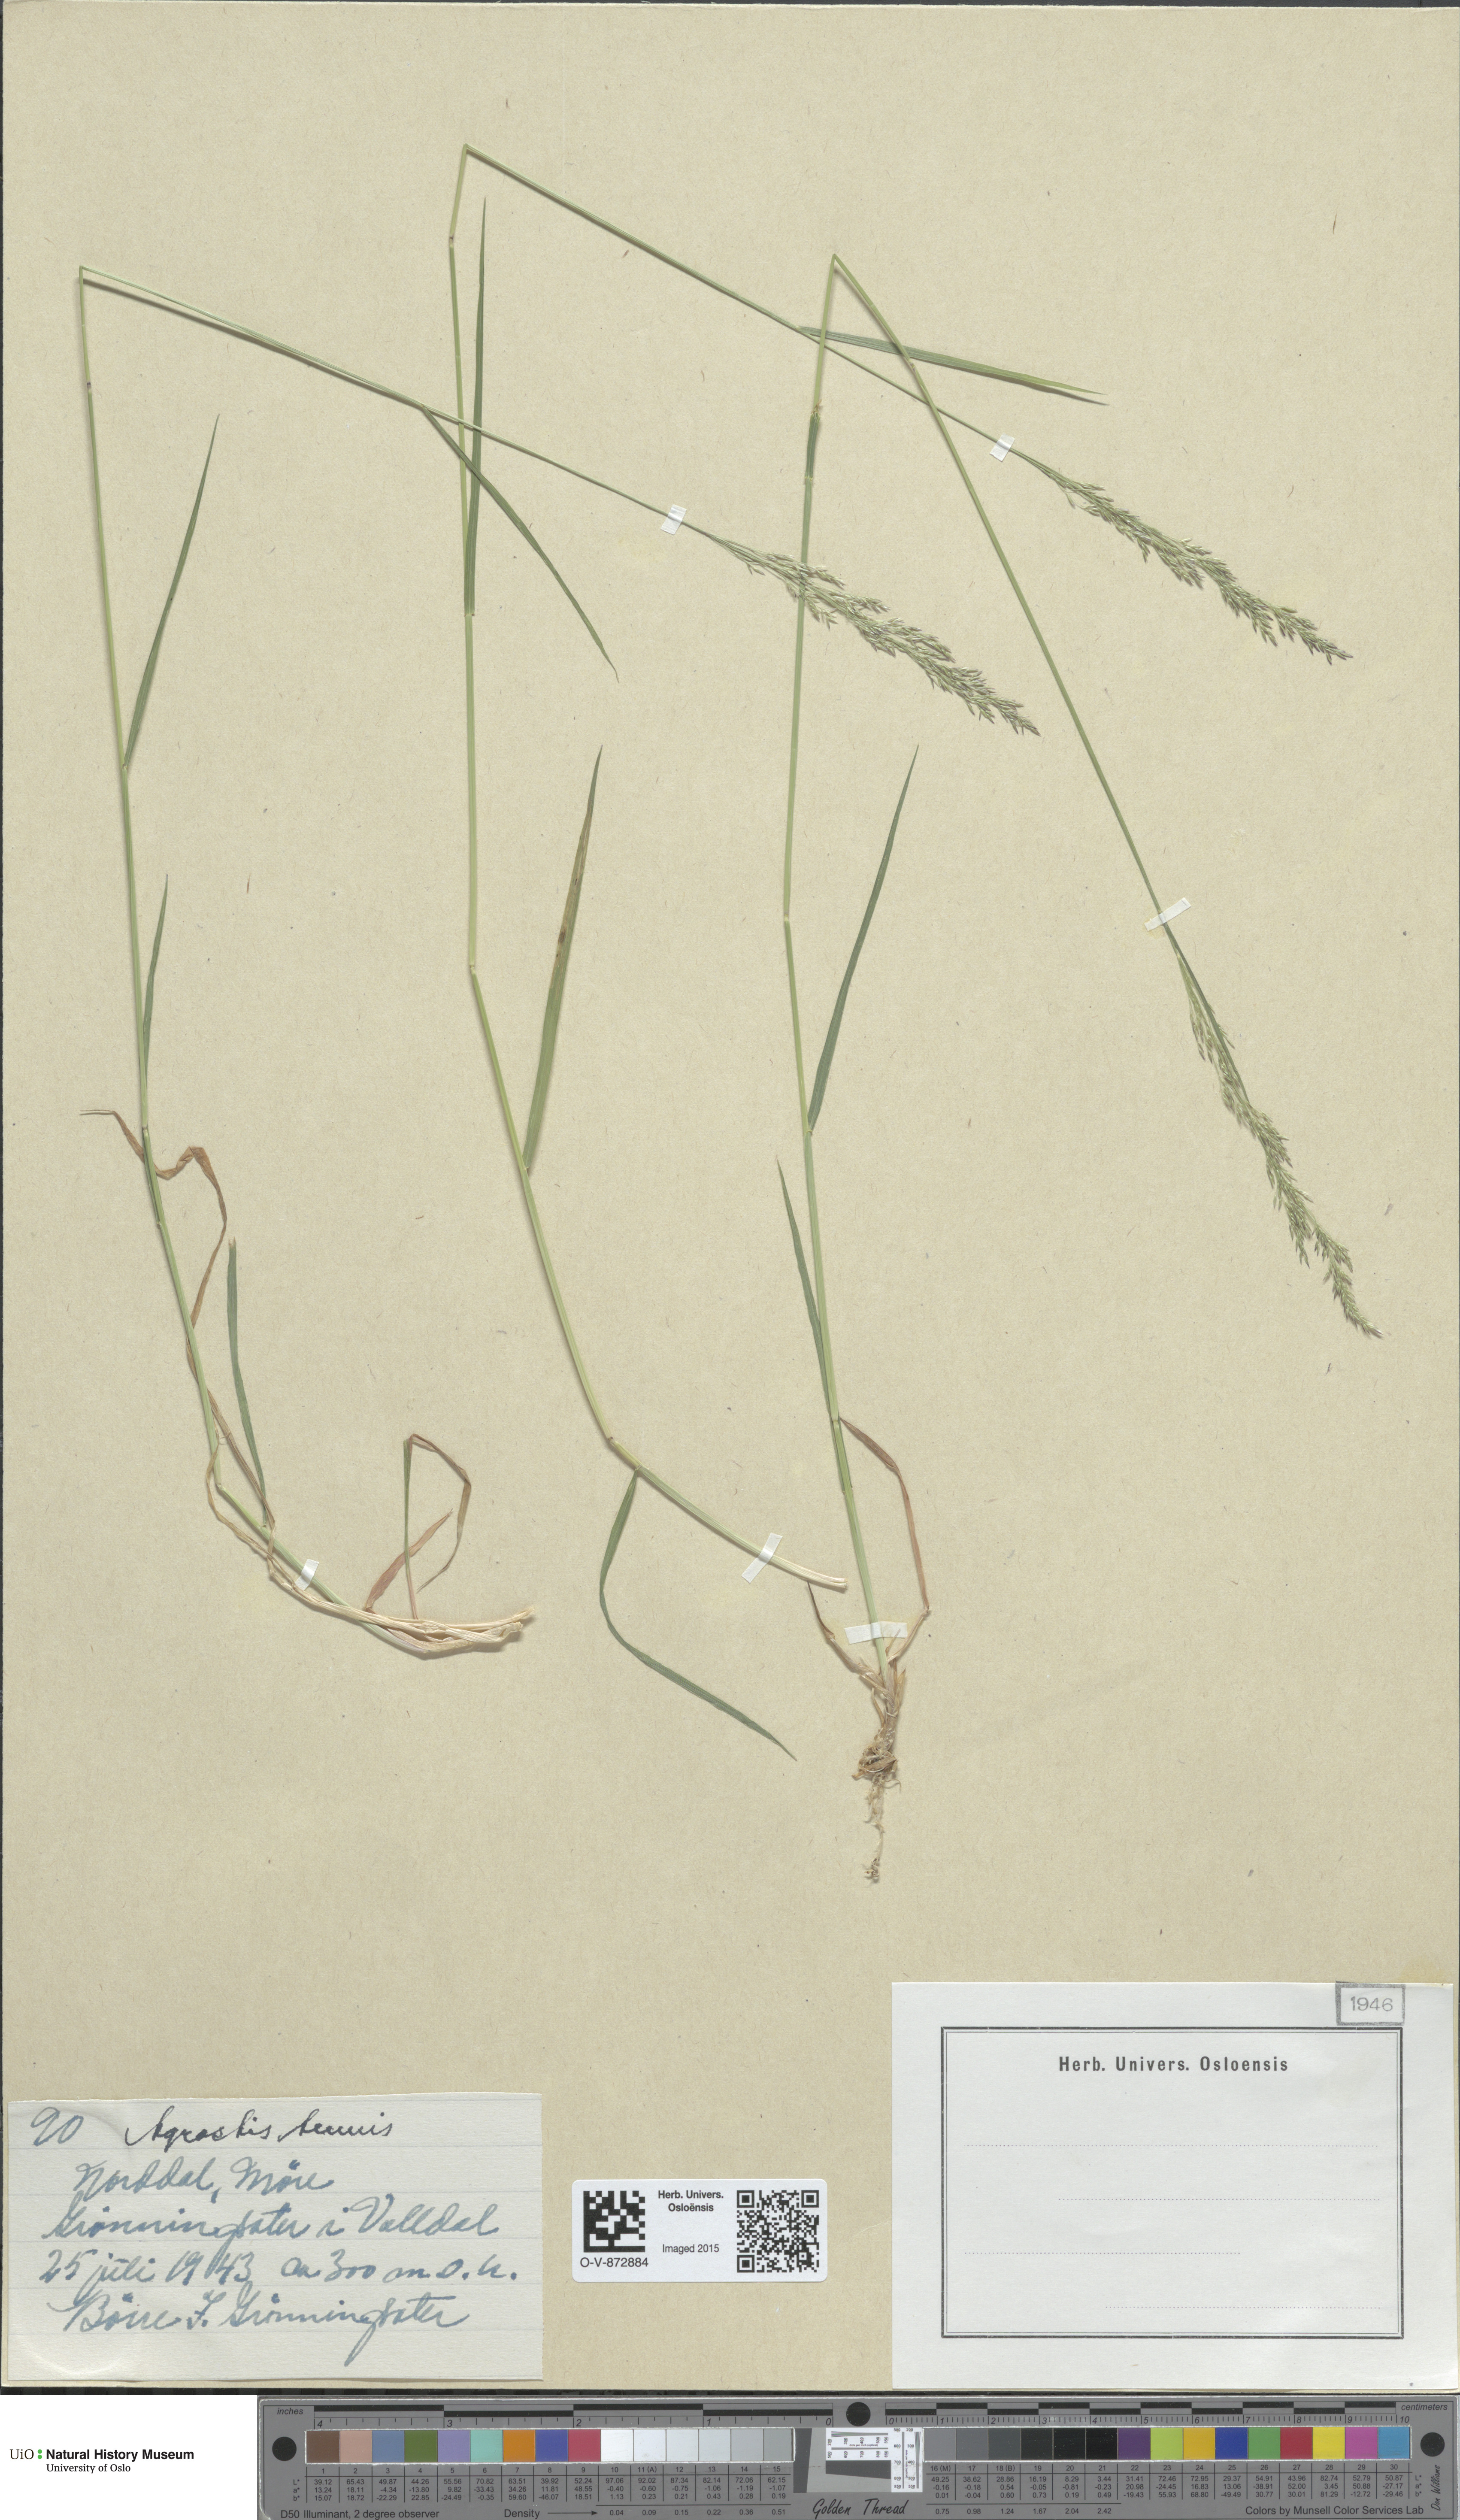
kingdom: Plantae
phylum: Tracheophyta
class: Liliopsida
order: Poales
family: Poaceae
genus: Agrostis
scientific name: Agrostis capillaris
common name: Colonial bentgrass
